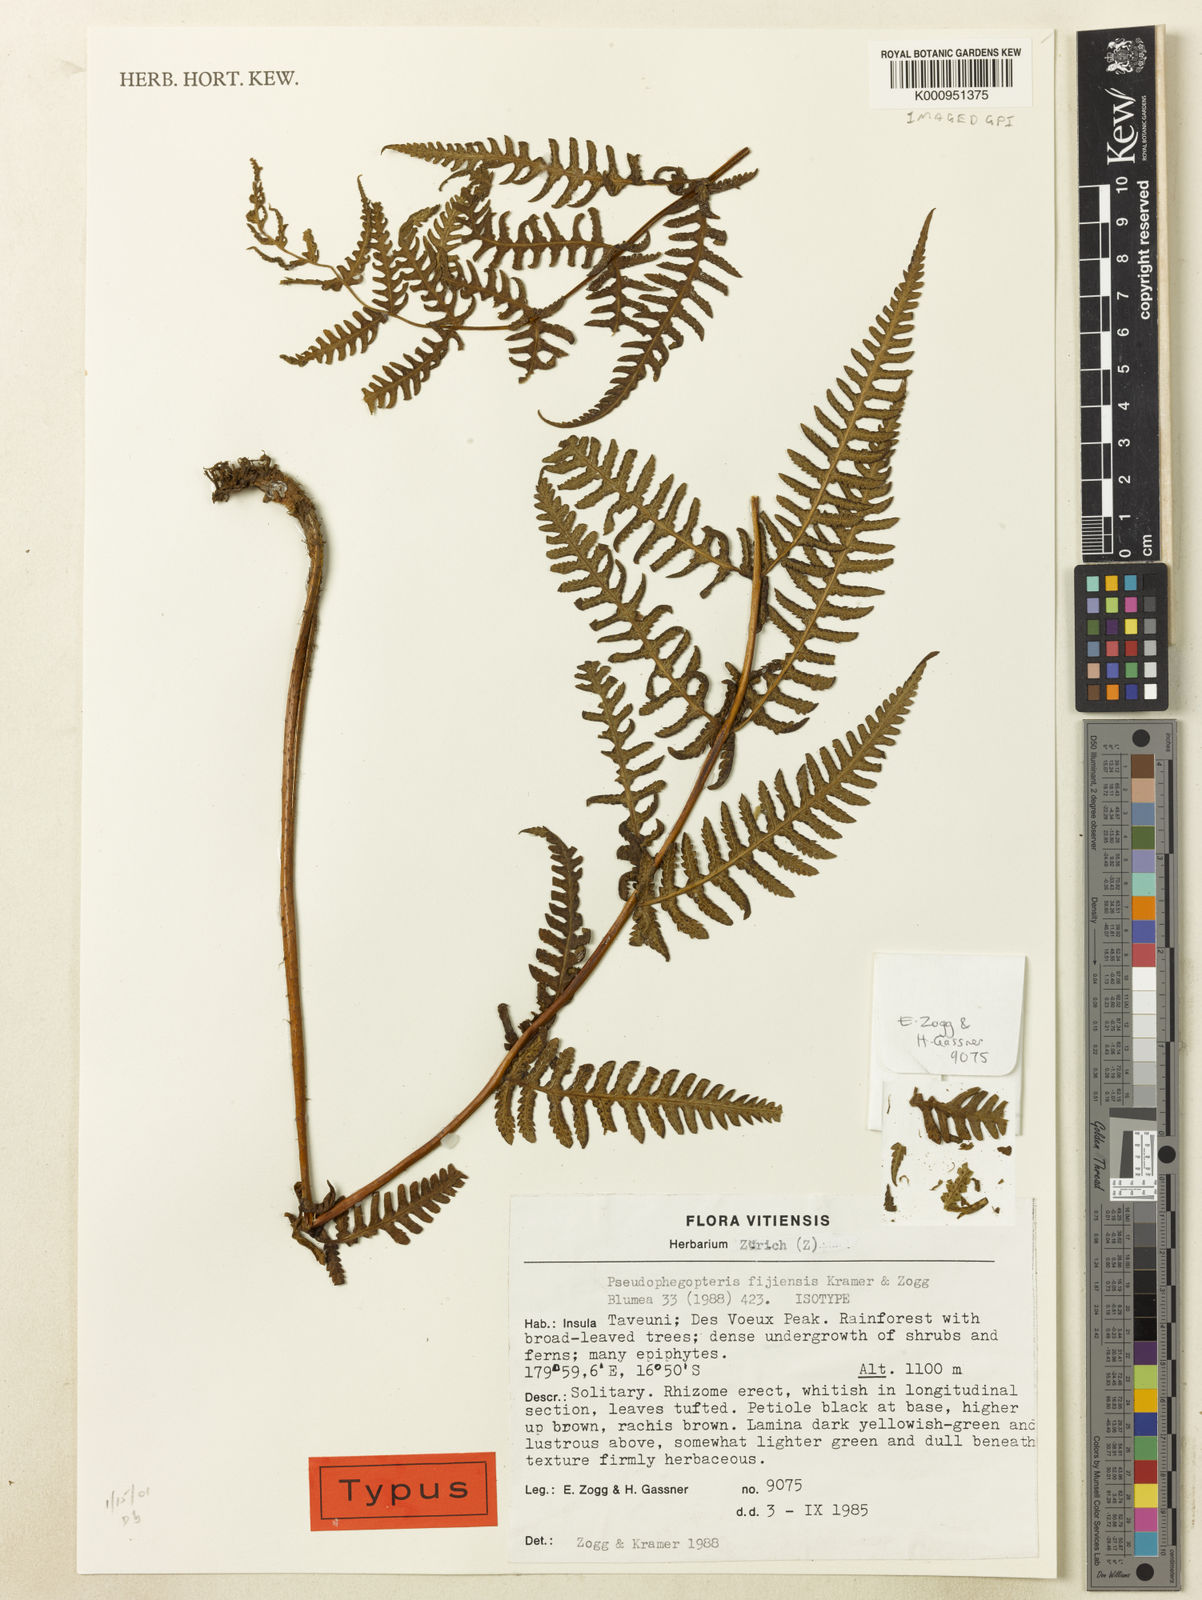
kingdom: Plantae
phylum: Tracheophyta
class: Polypodiopsida
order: Polypodiales
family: Thelypteridaceae
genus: Pseudophegopteris
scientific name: Pseudophegopteris fijiensis
